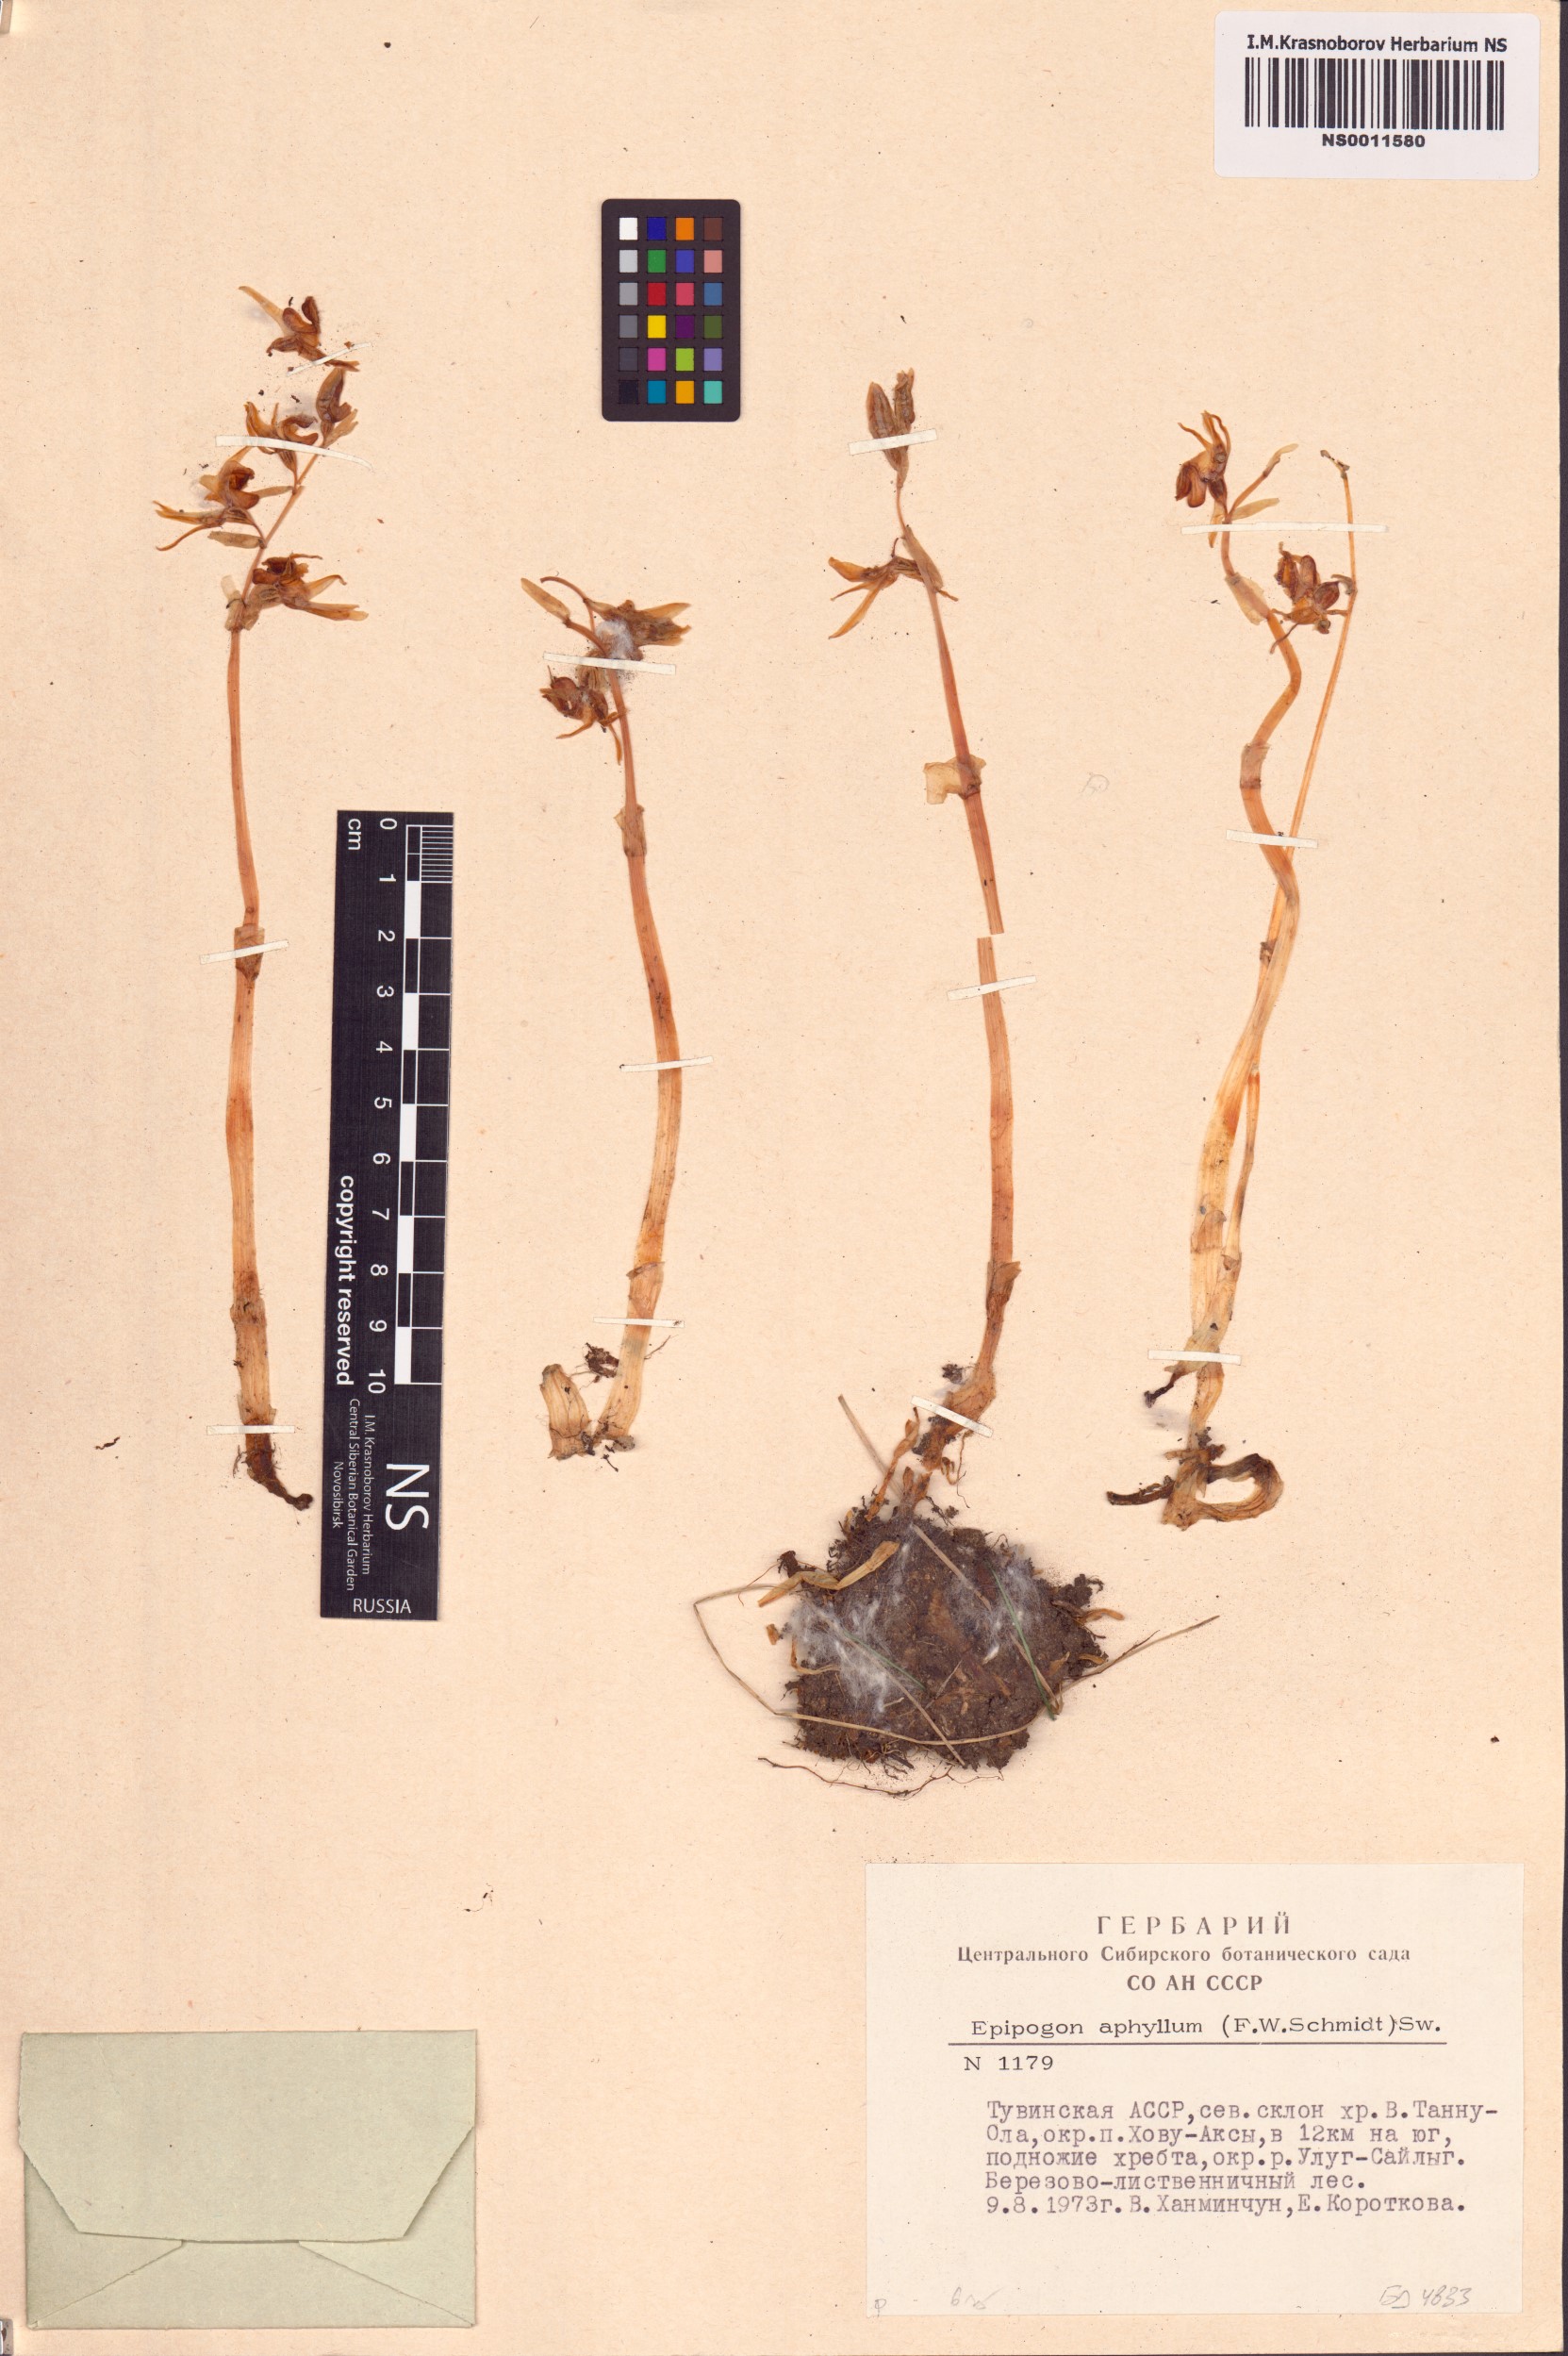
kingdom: Plantae
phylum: Tracheophyta
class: Liliopsida
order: Asparagales
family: Orchidaceae
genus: Epipogium
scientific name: Epipogium aphyllum
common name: Ghost orchid
